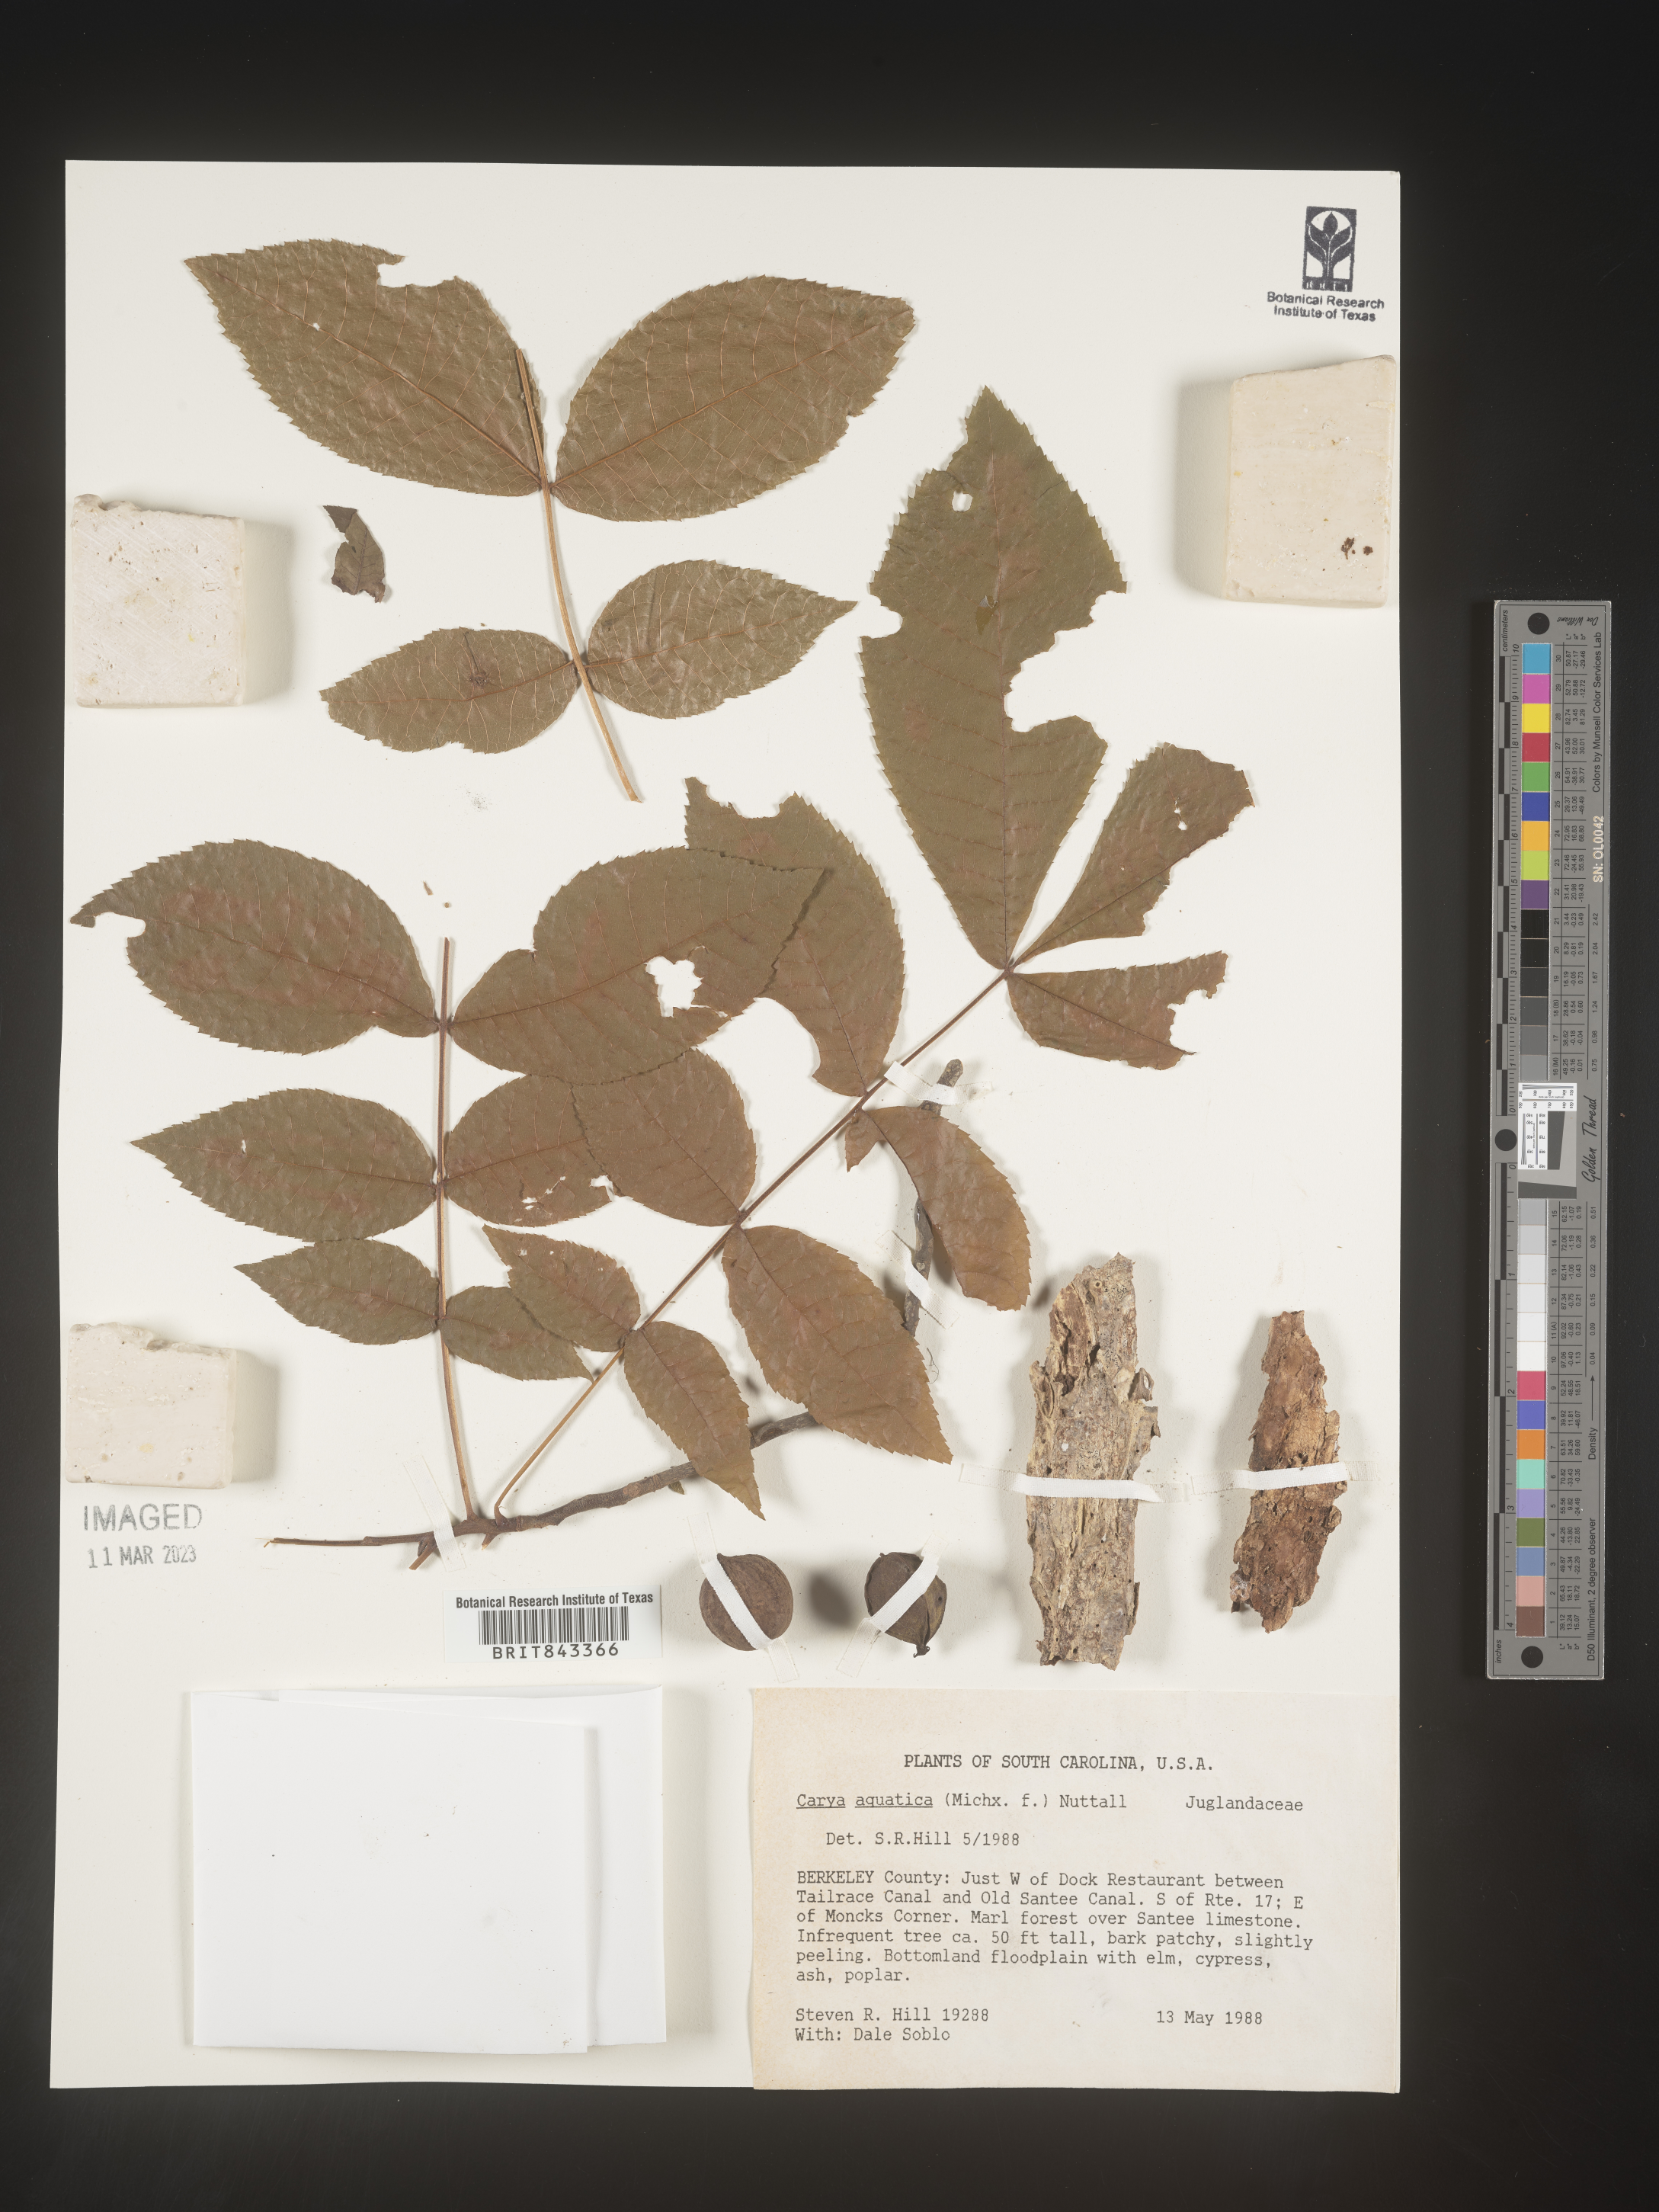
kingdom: Plantae
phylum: Tracheophyta
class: Magnoliopsida
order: Fagales
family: Juglandaceae
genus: Carya
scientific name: Carya aquatica
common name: Water hickory
